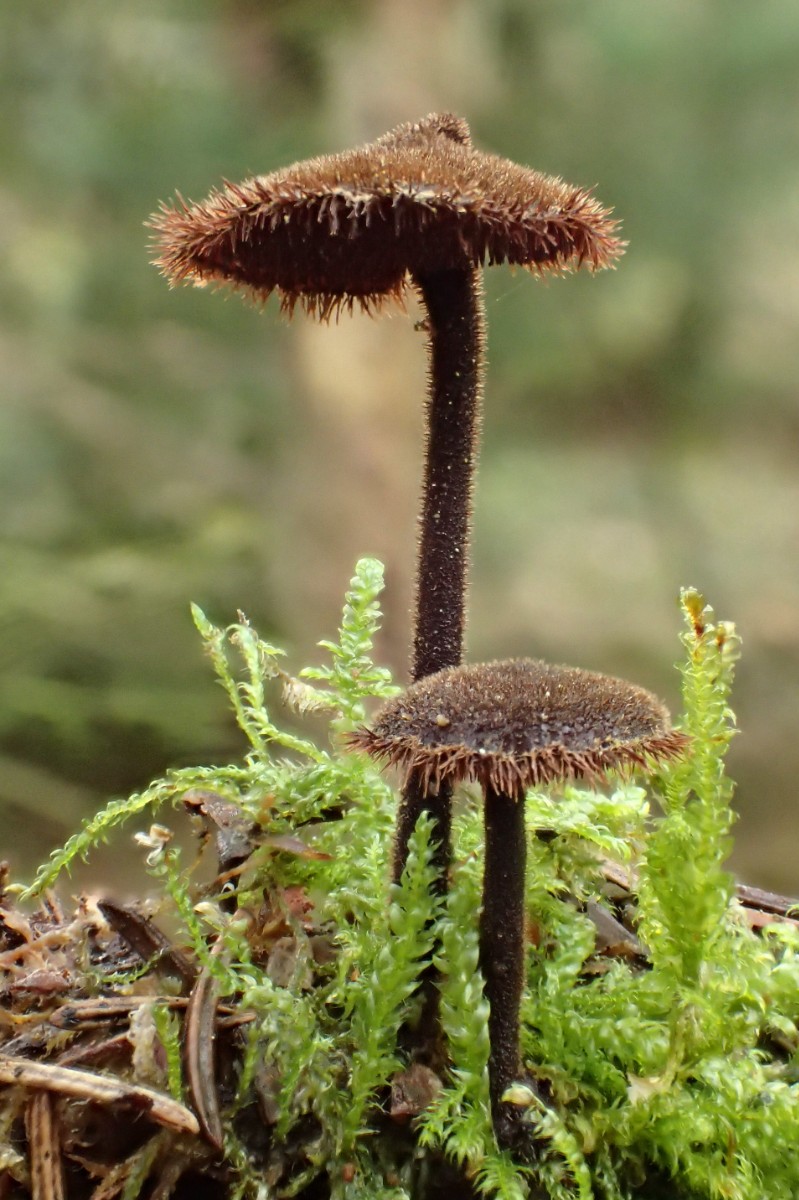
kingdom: Fungi
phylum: Basidiomycota
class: Agaricomycetes
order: Russulales
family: Auriscalpiaceae
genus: Auriscalpium
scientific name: Auriscalpium vulgare
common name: koglepigsvamp
